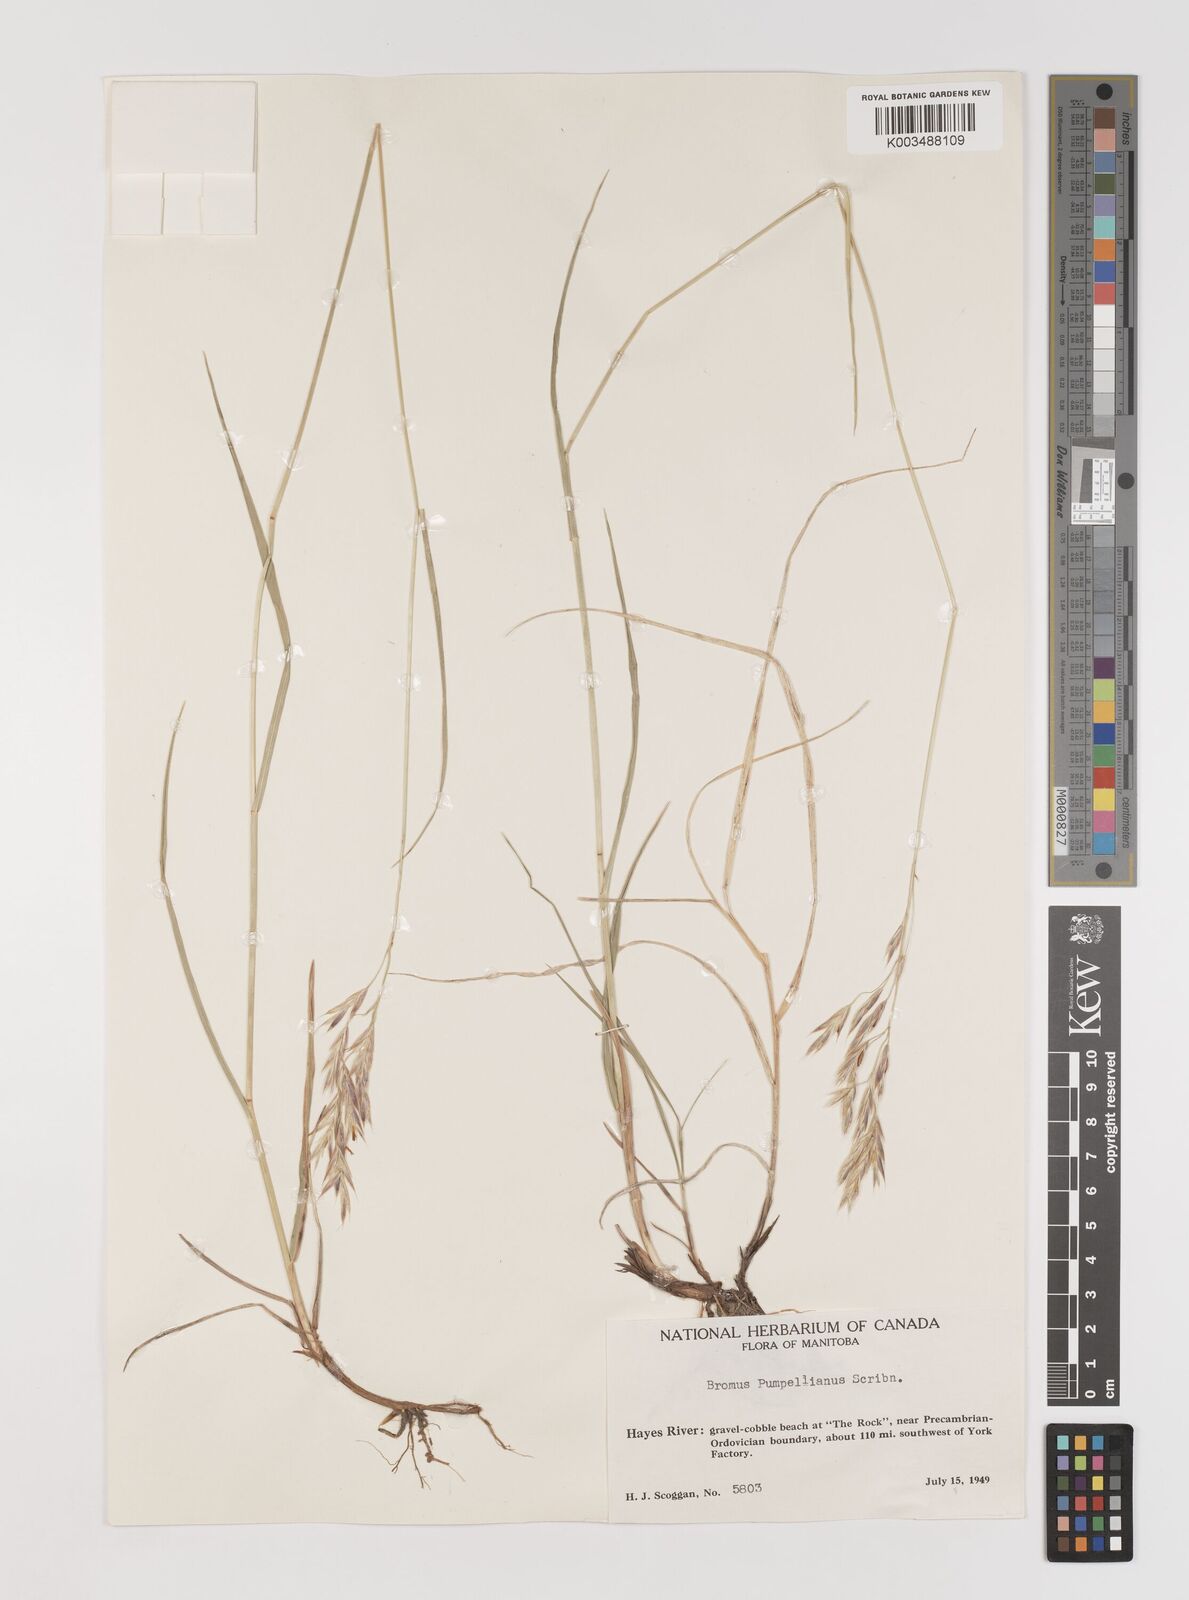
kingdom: Plantae
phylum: Tracheophyta
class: Liliopsida
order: Poales
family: Poaceae
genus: Bromus
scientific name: Bromus pumpellianus
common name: Pumpelly's brome
